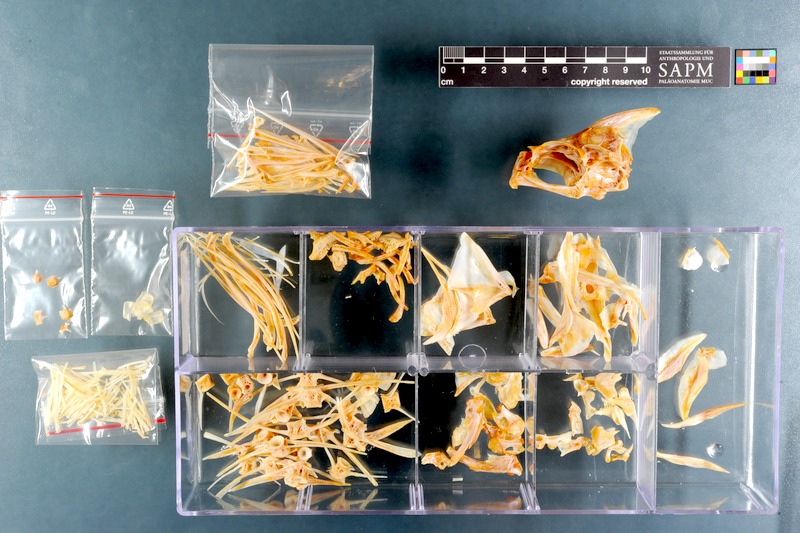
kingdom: Animalia
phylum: Chordata
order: Perciformes
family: Dichistiidae
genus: Dichistius
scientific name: Dichistius capensis
